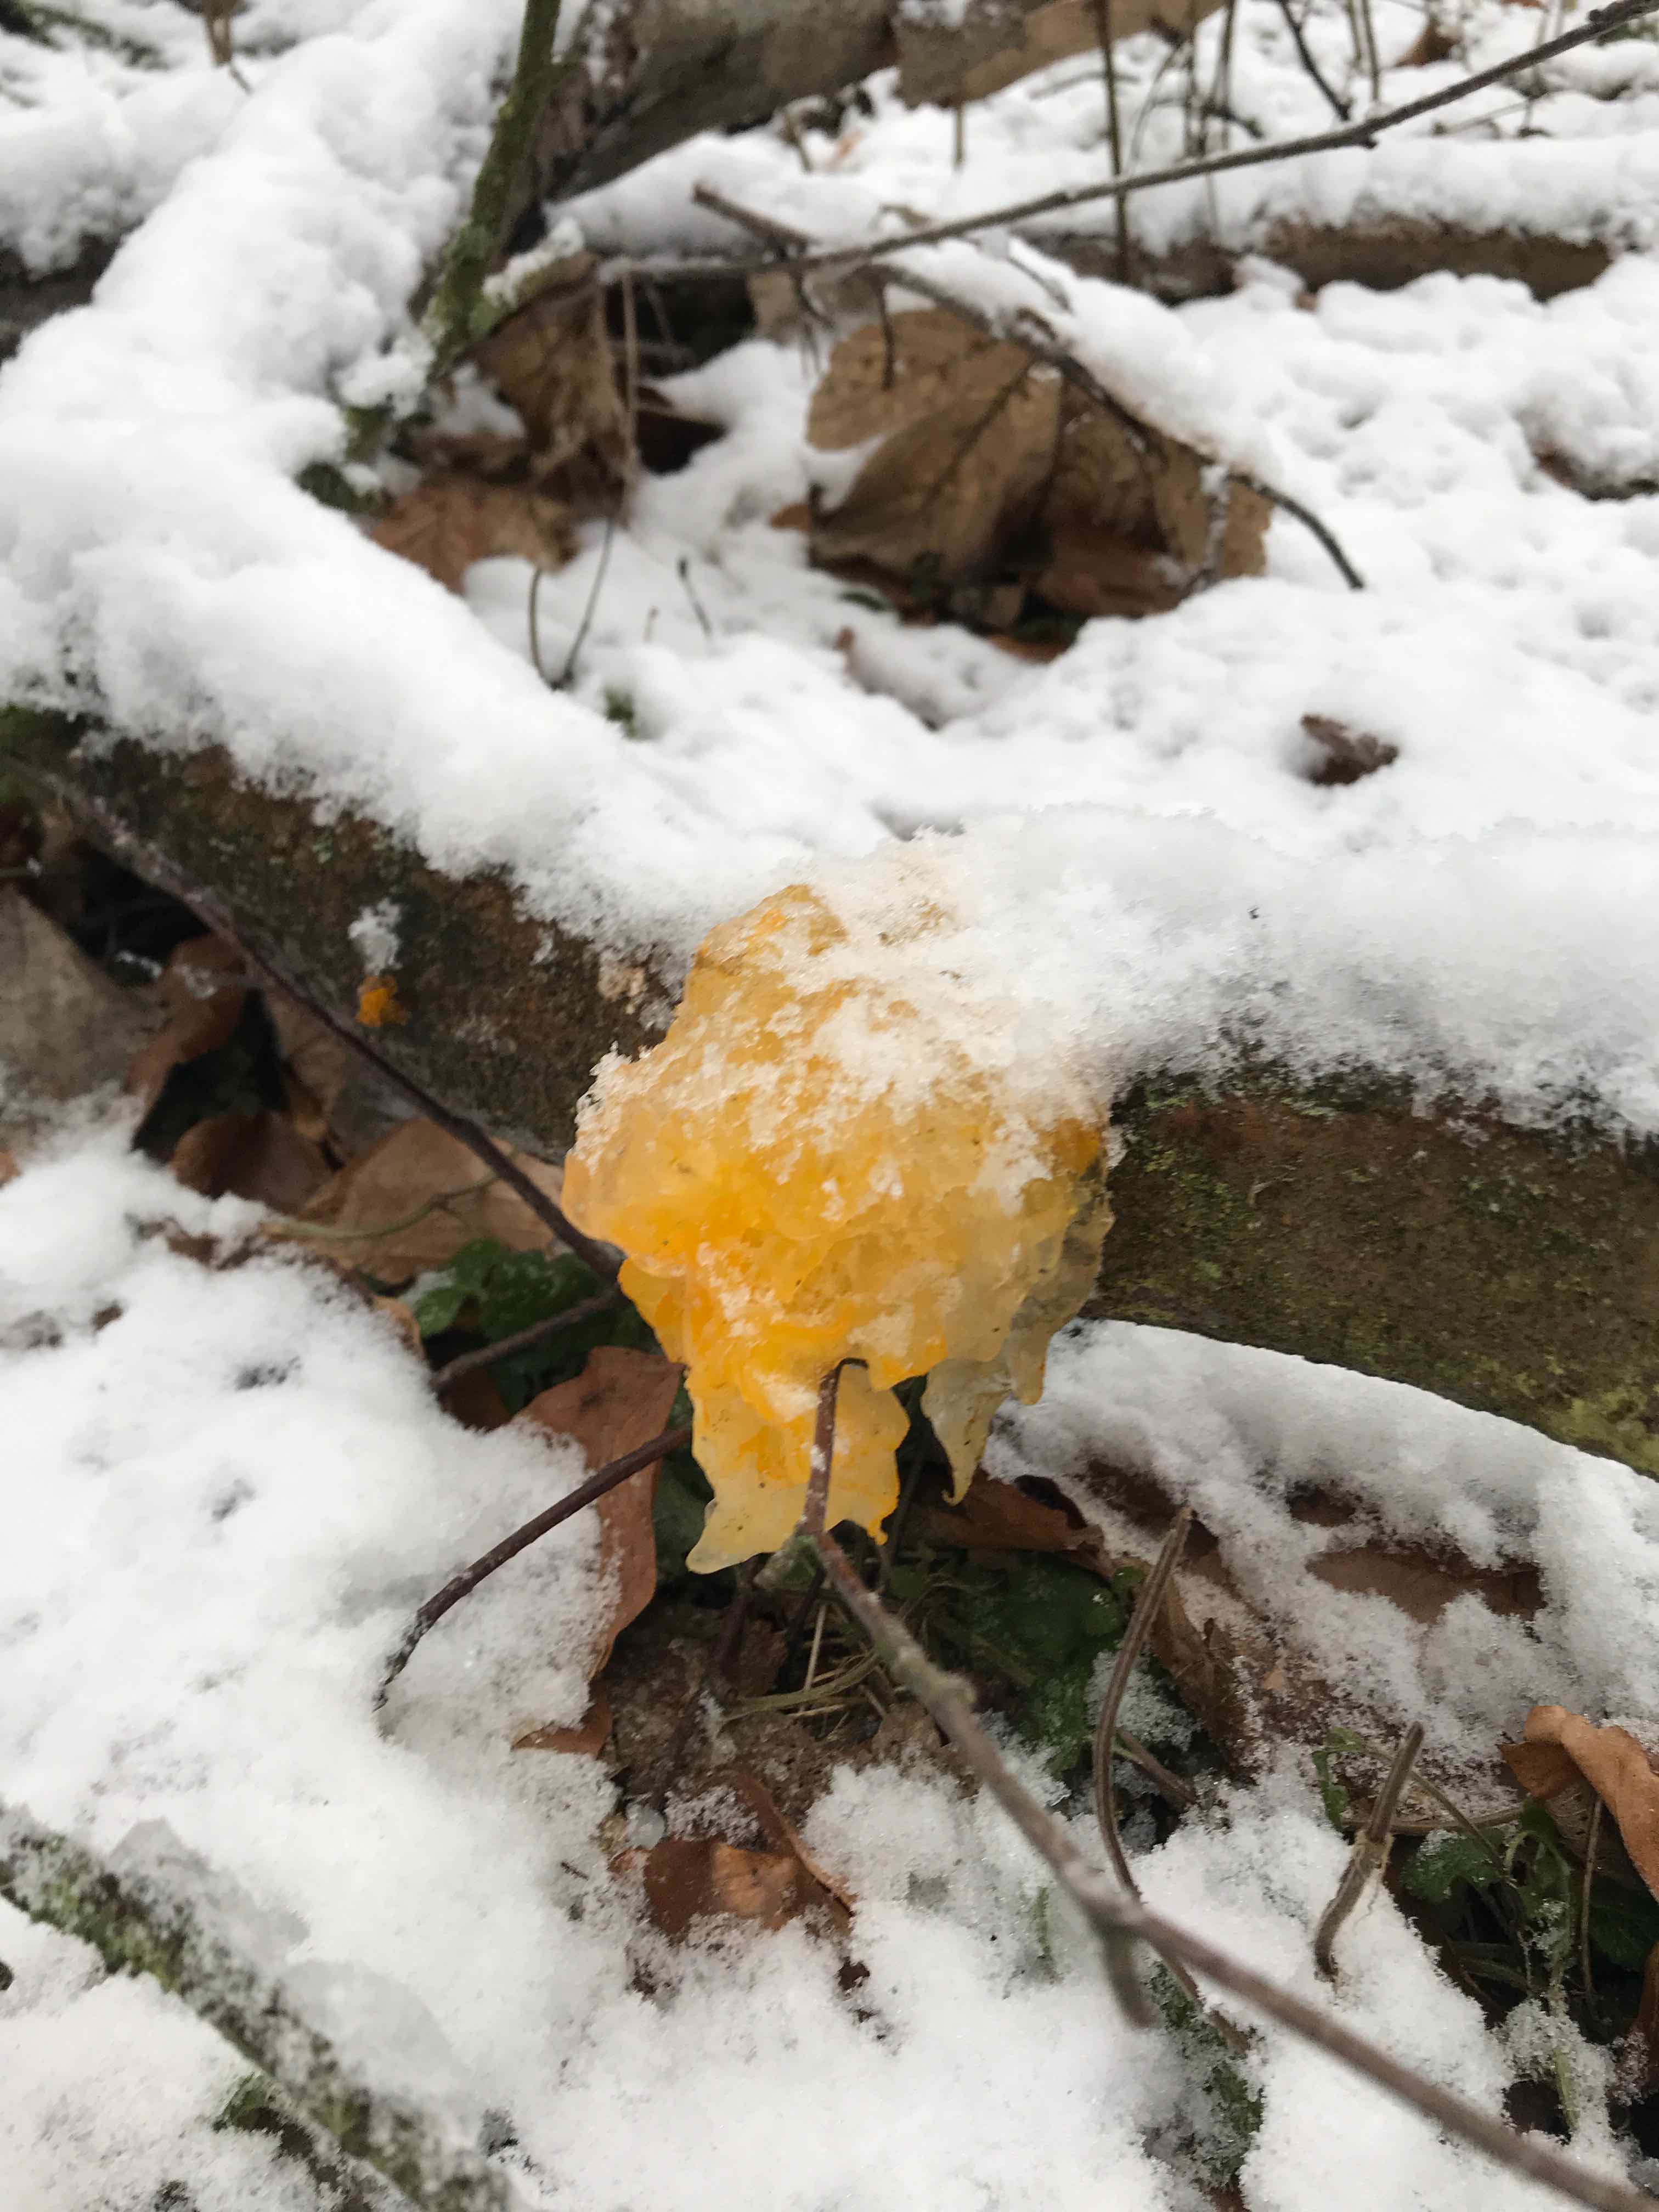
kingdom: Fungi
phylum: Basidiomycota
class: Tremellomycetes
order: Tremellales
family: Tremellaceae
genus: Tremella
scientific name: Tremella mesenterica
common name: gul bævresvamp
